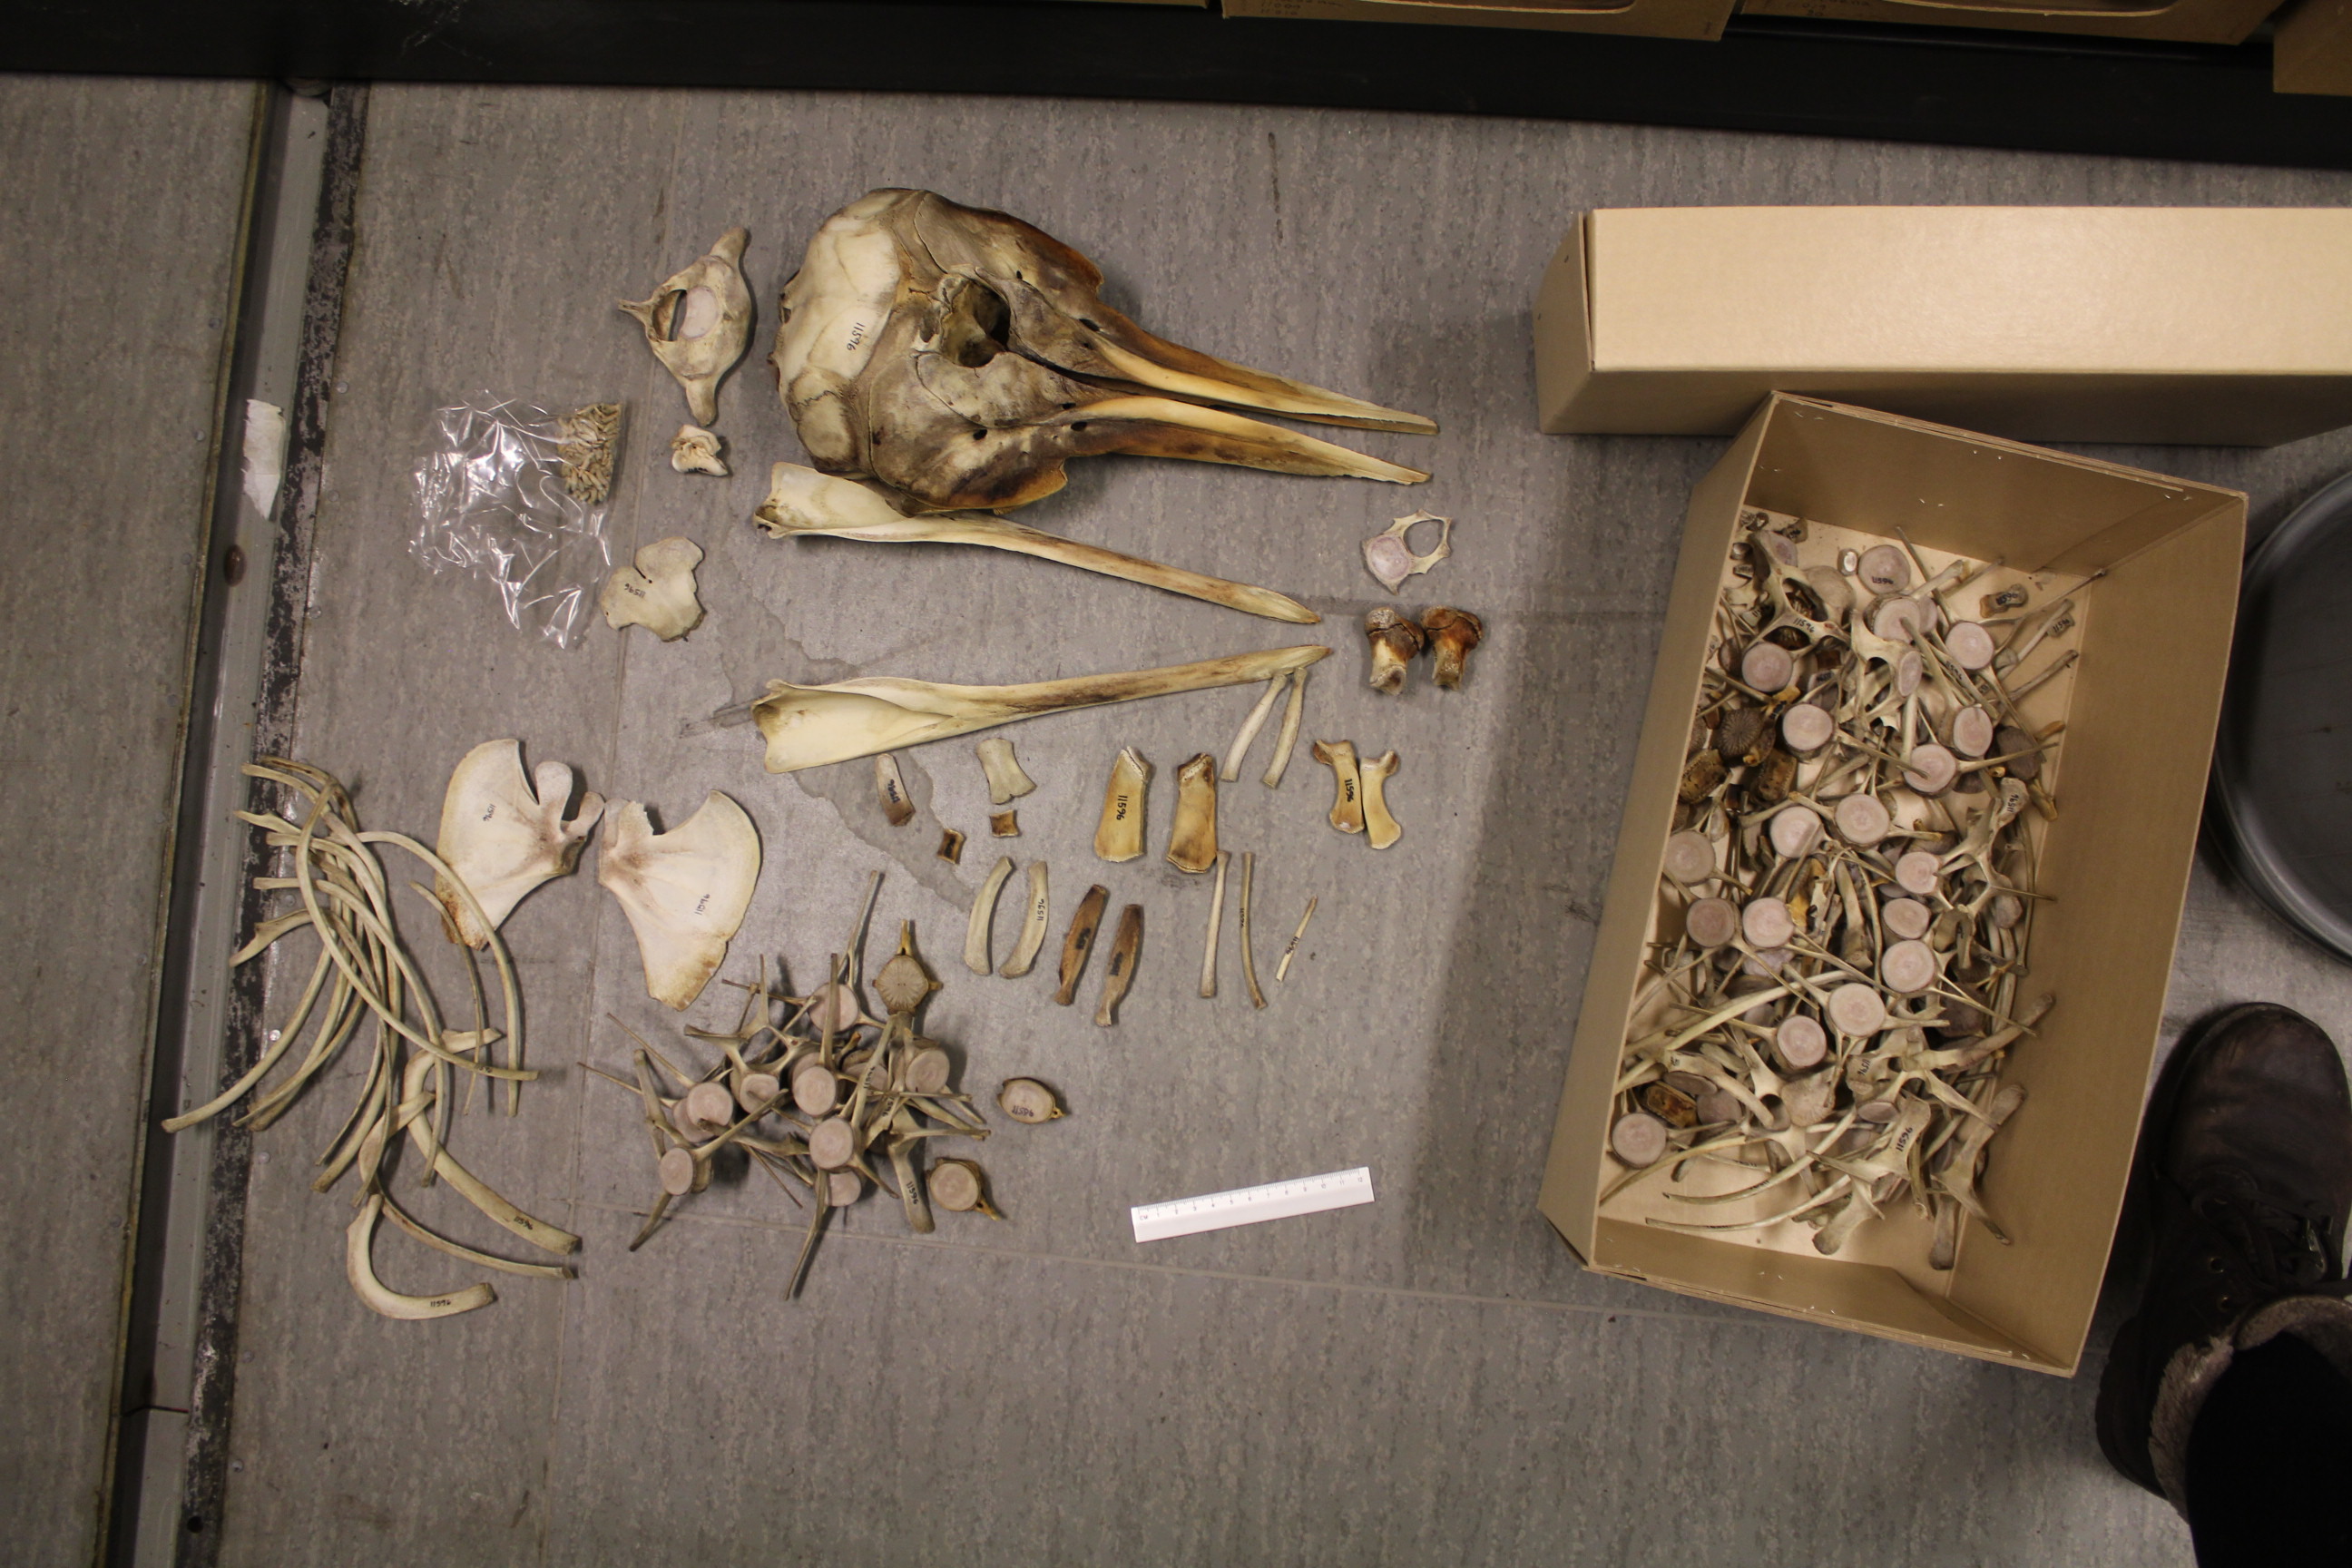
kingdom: Animalia
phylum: Chordata
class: Mammalia
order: Cetacea
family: Delphinidae
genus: Stenella
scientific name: Stenella coeruleoalba
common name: Striped dolphin
